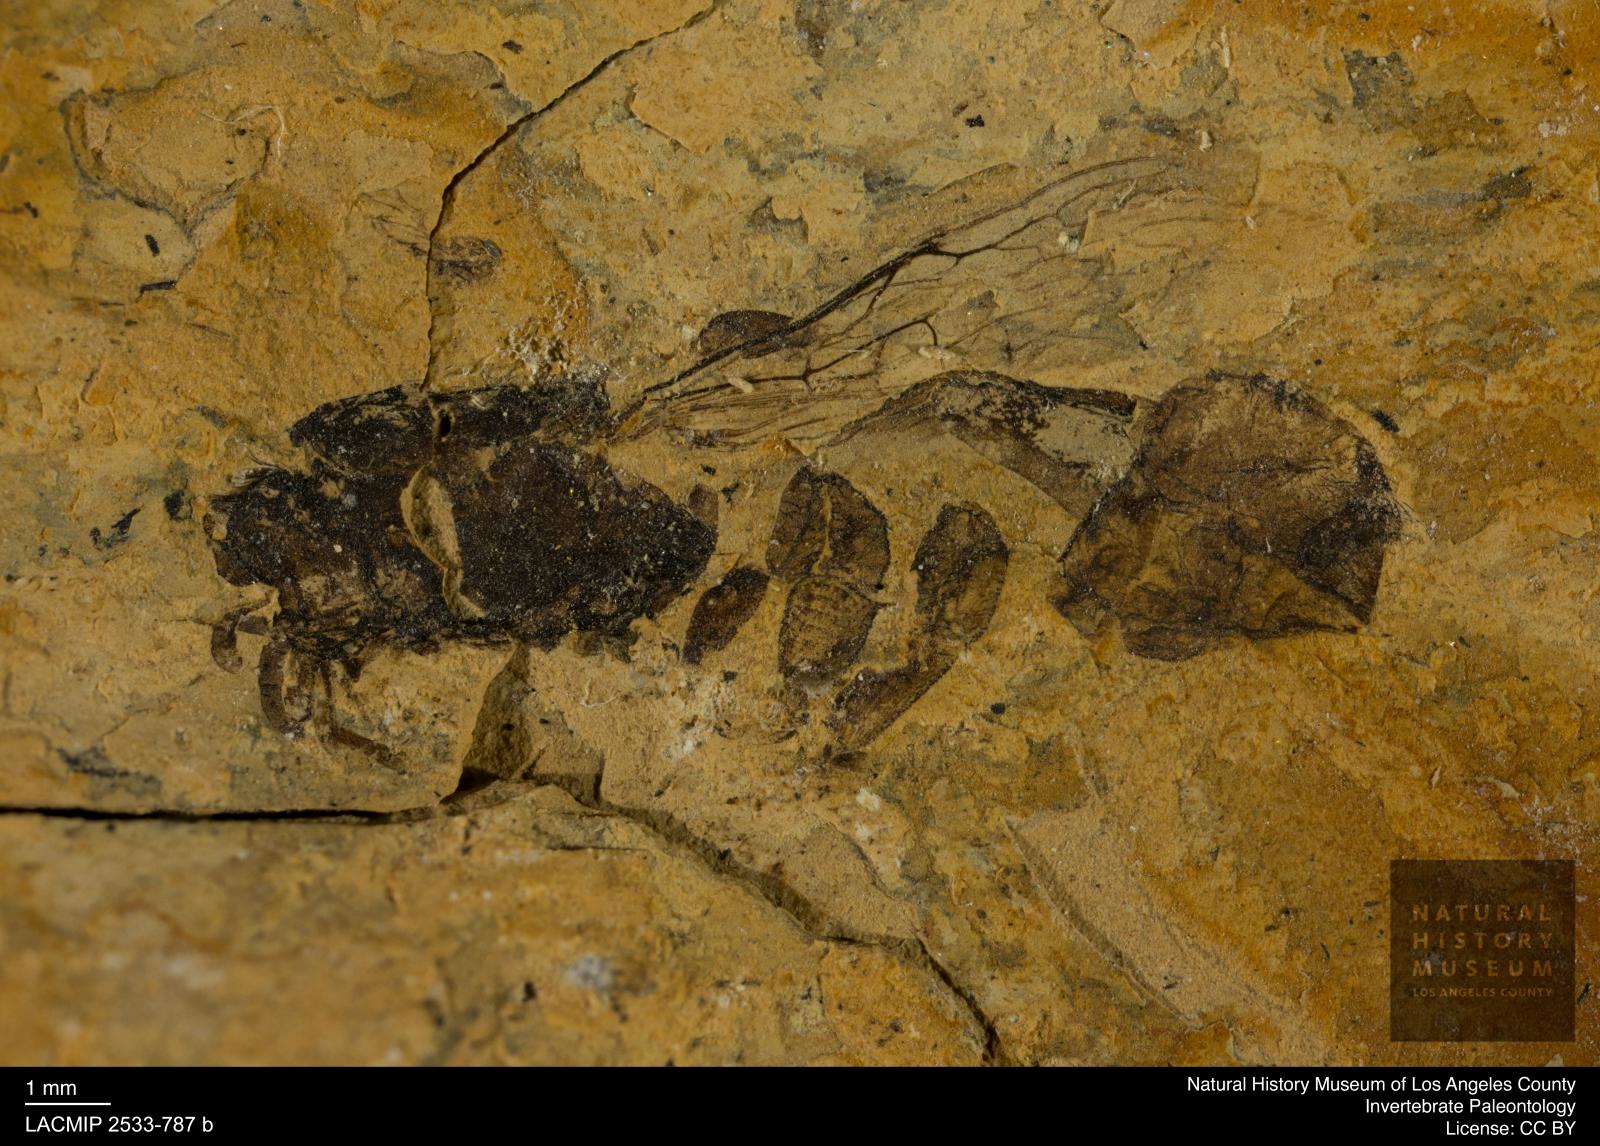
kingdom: Animalia
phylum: Arthropoda
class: Insecta
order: Hymenoptera
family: Apidae
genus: Apis
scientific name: Apis henshawi
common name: Henshaw's honey bee
